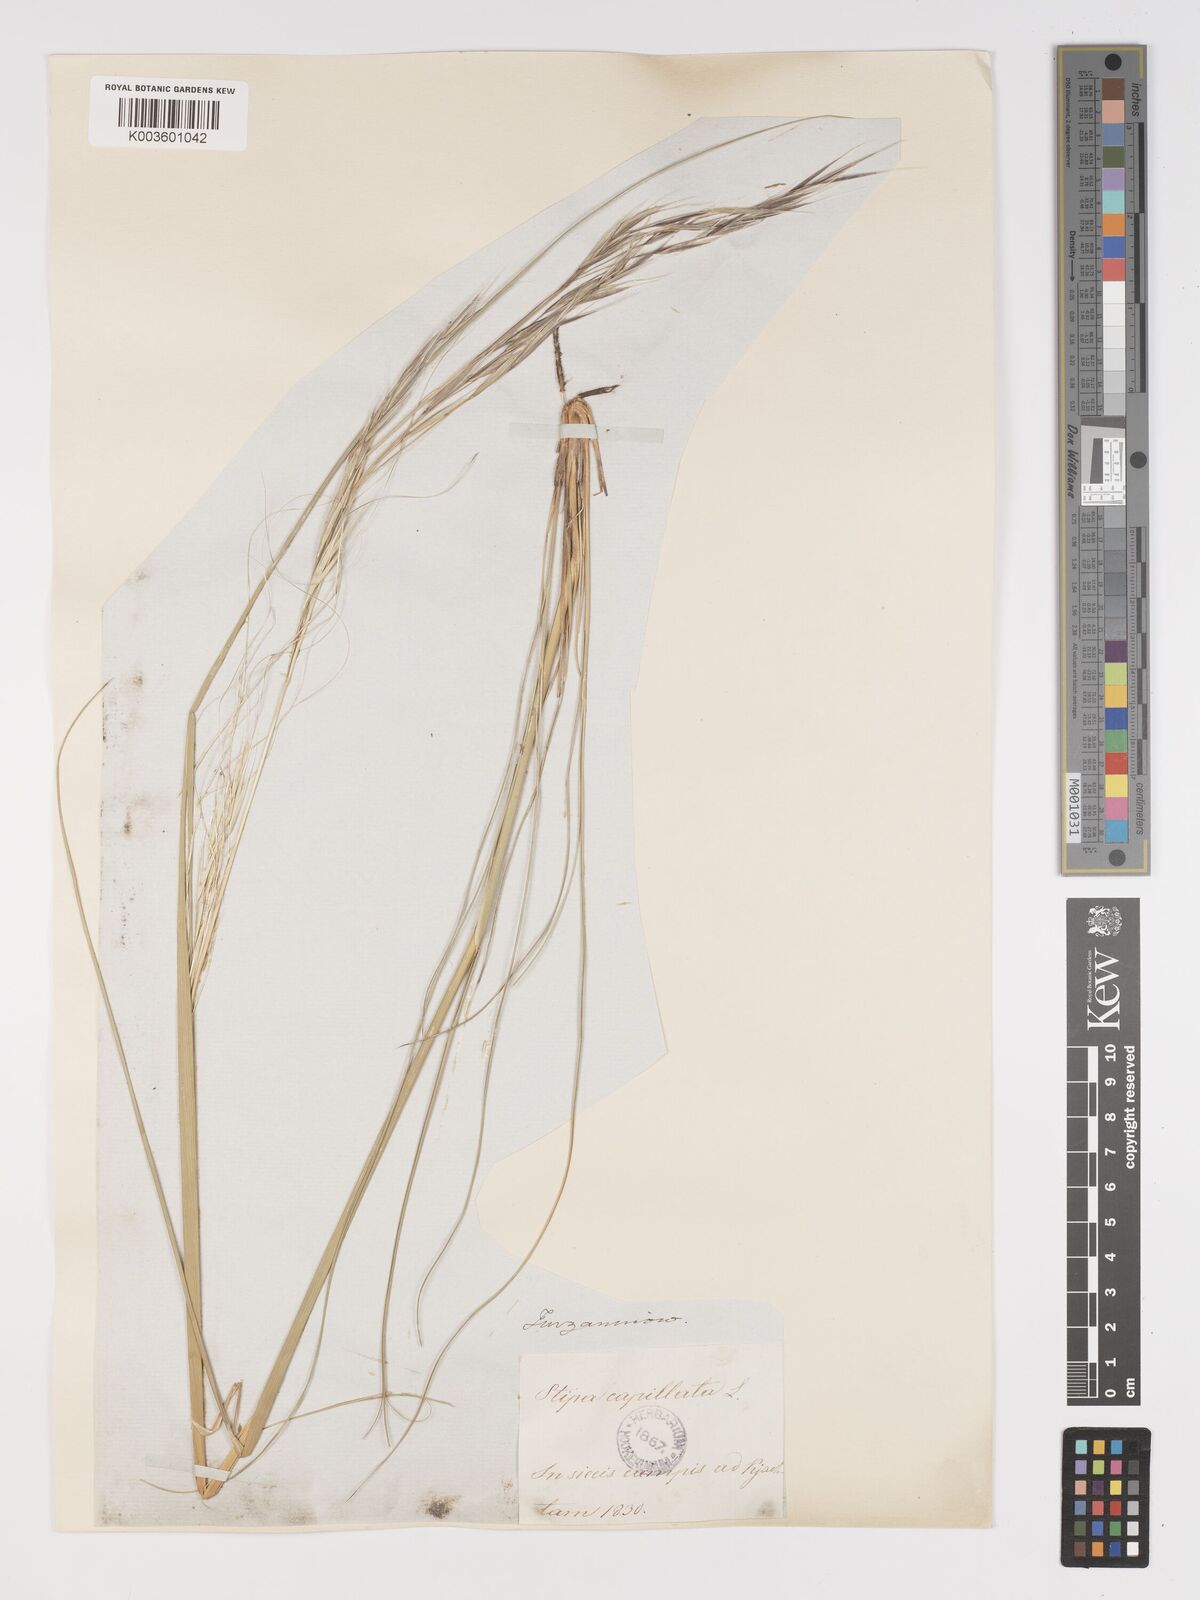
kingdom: Plantae
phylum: Tracheophyta
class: Liliopsida
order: Poales
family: Poaceae
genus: Stipa
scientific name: Stipa capillata
